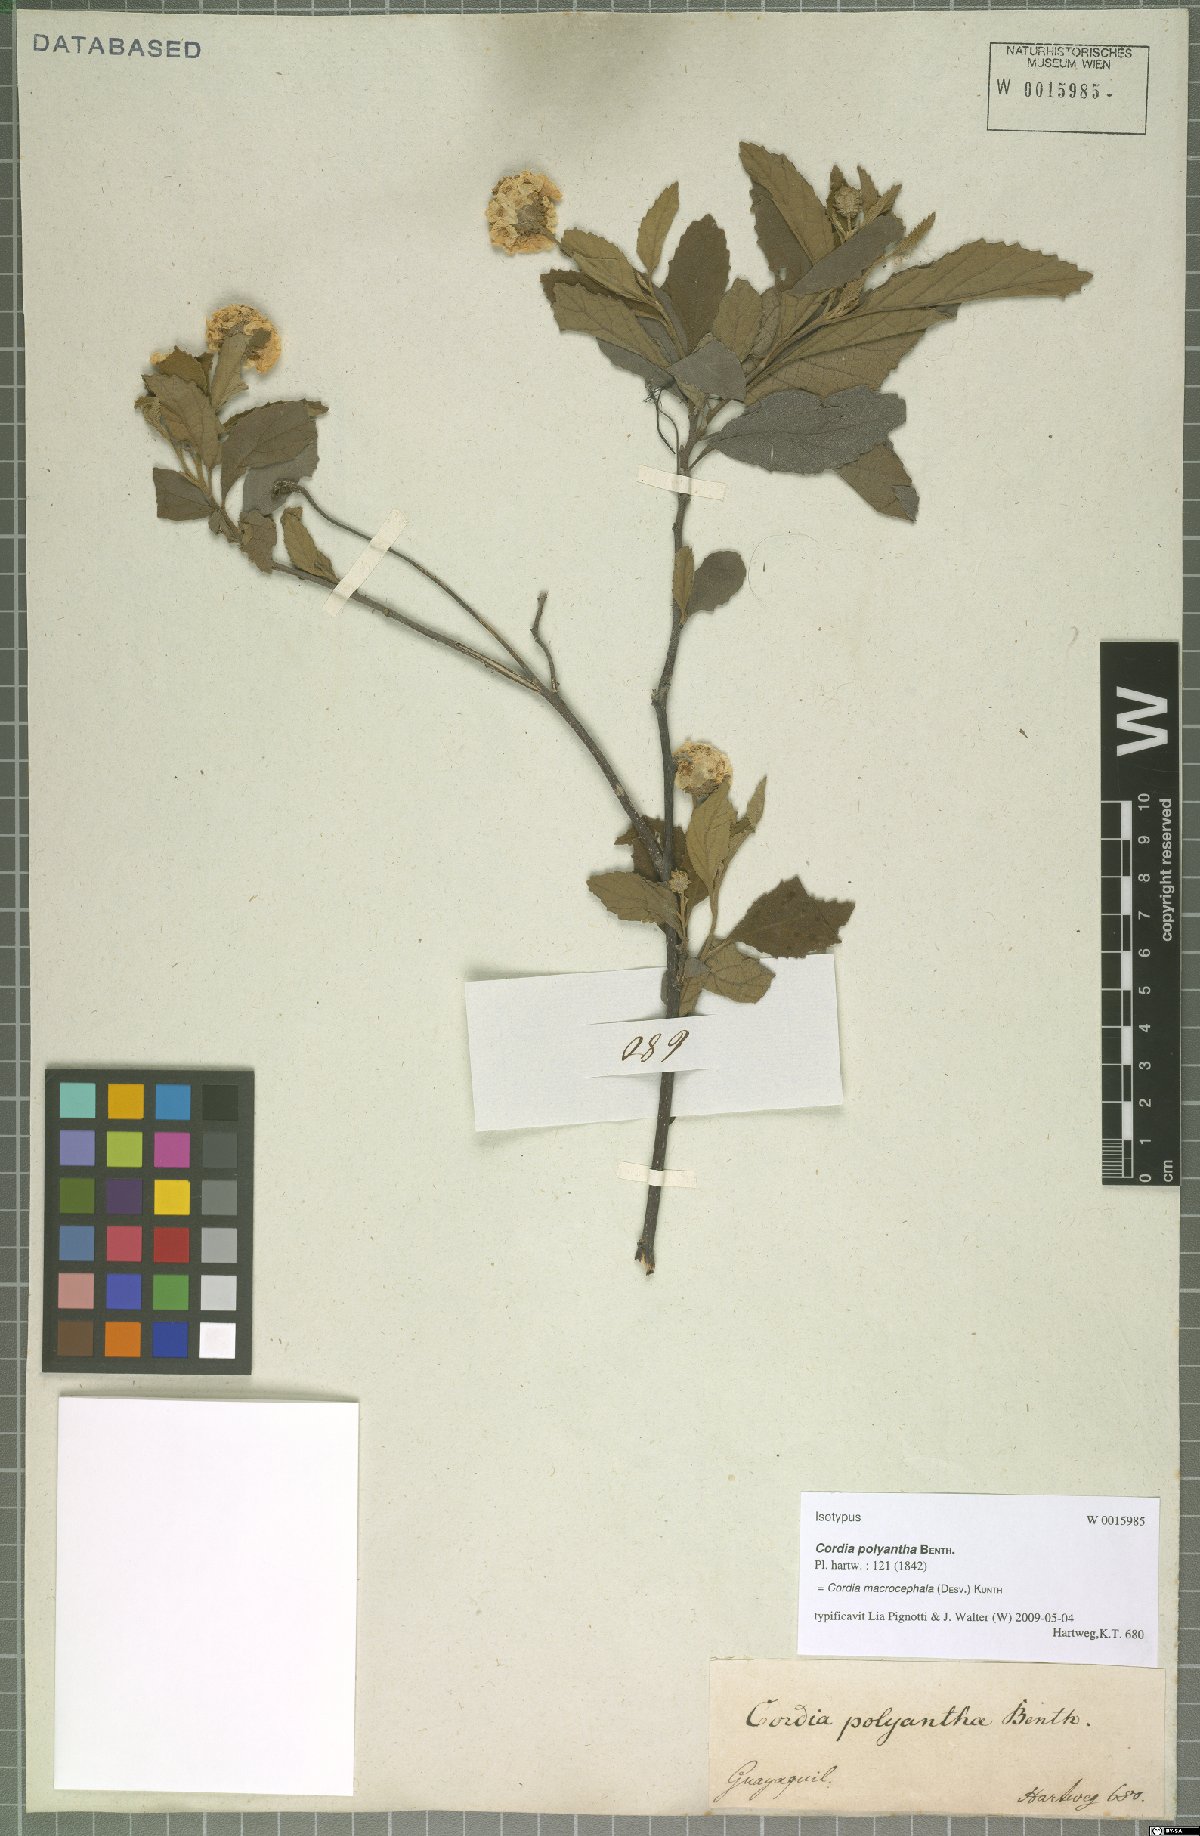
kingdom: Plantae
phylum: Tracheophyta
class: Magnoliopsida
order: Boraginales
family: Cordiaceae
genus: Varronia
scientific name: Varronia macrocephala
